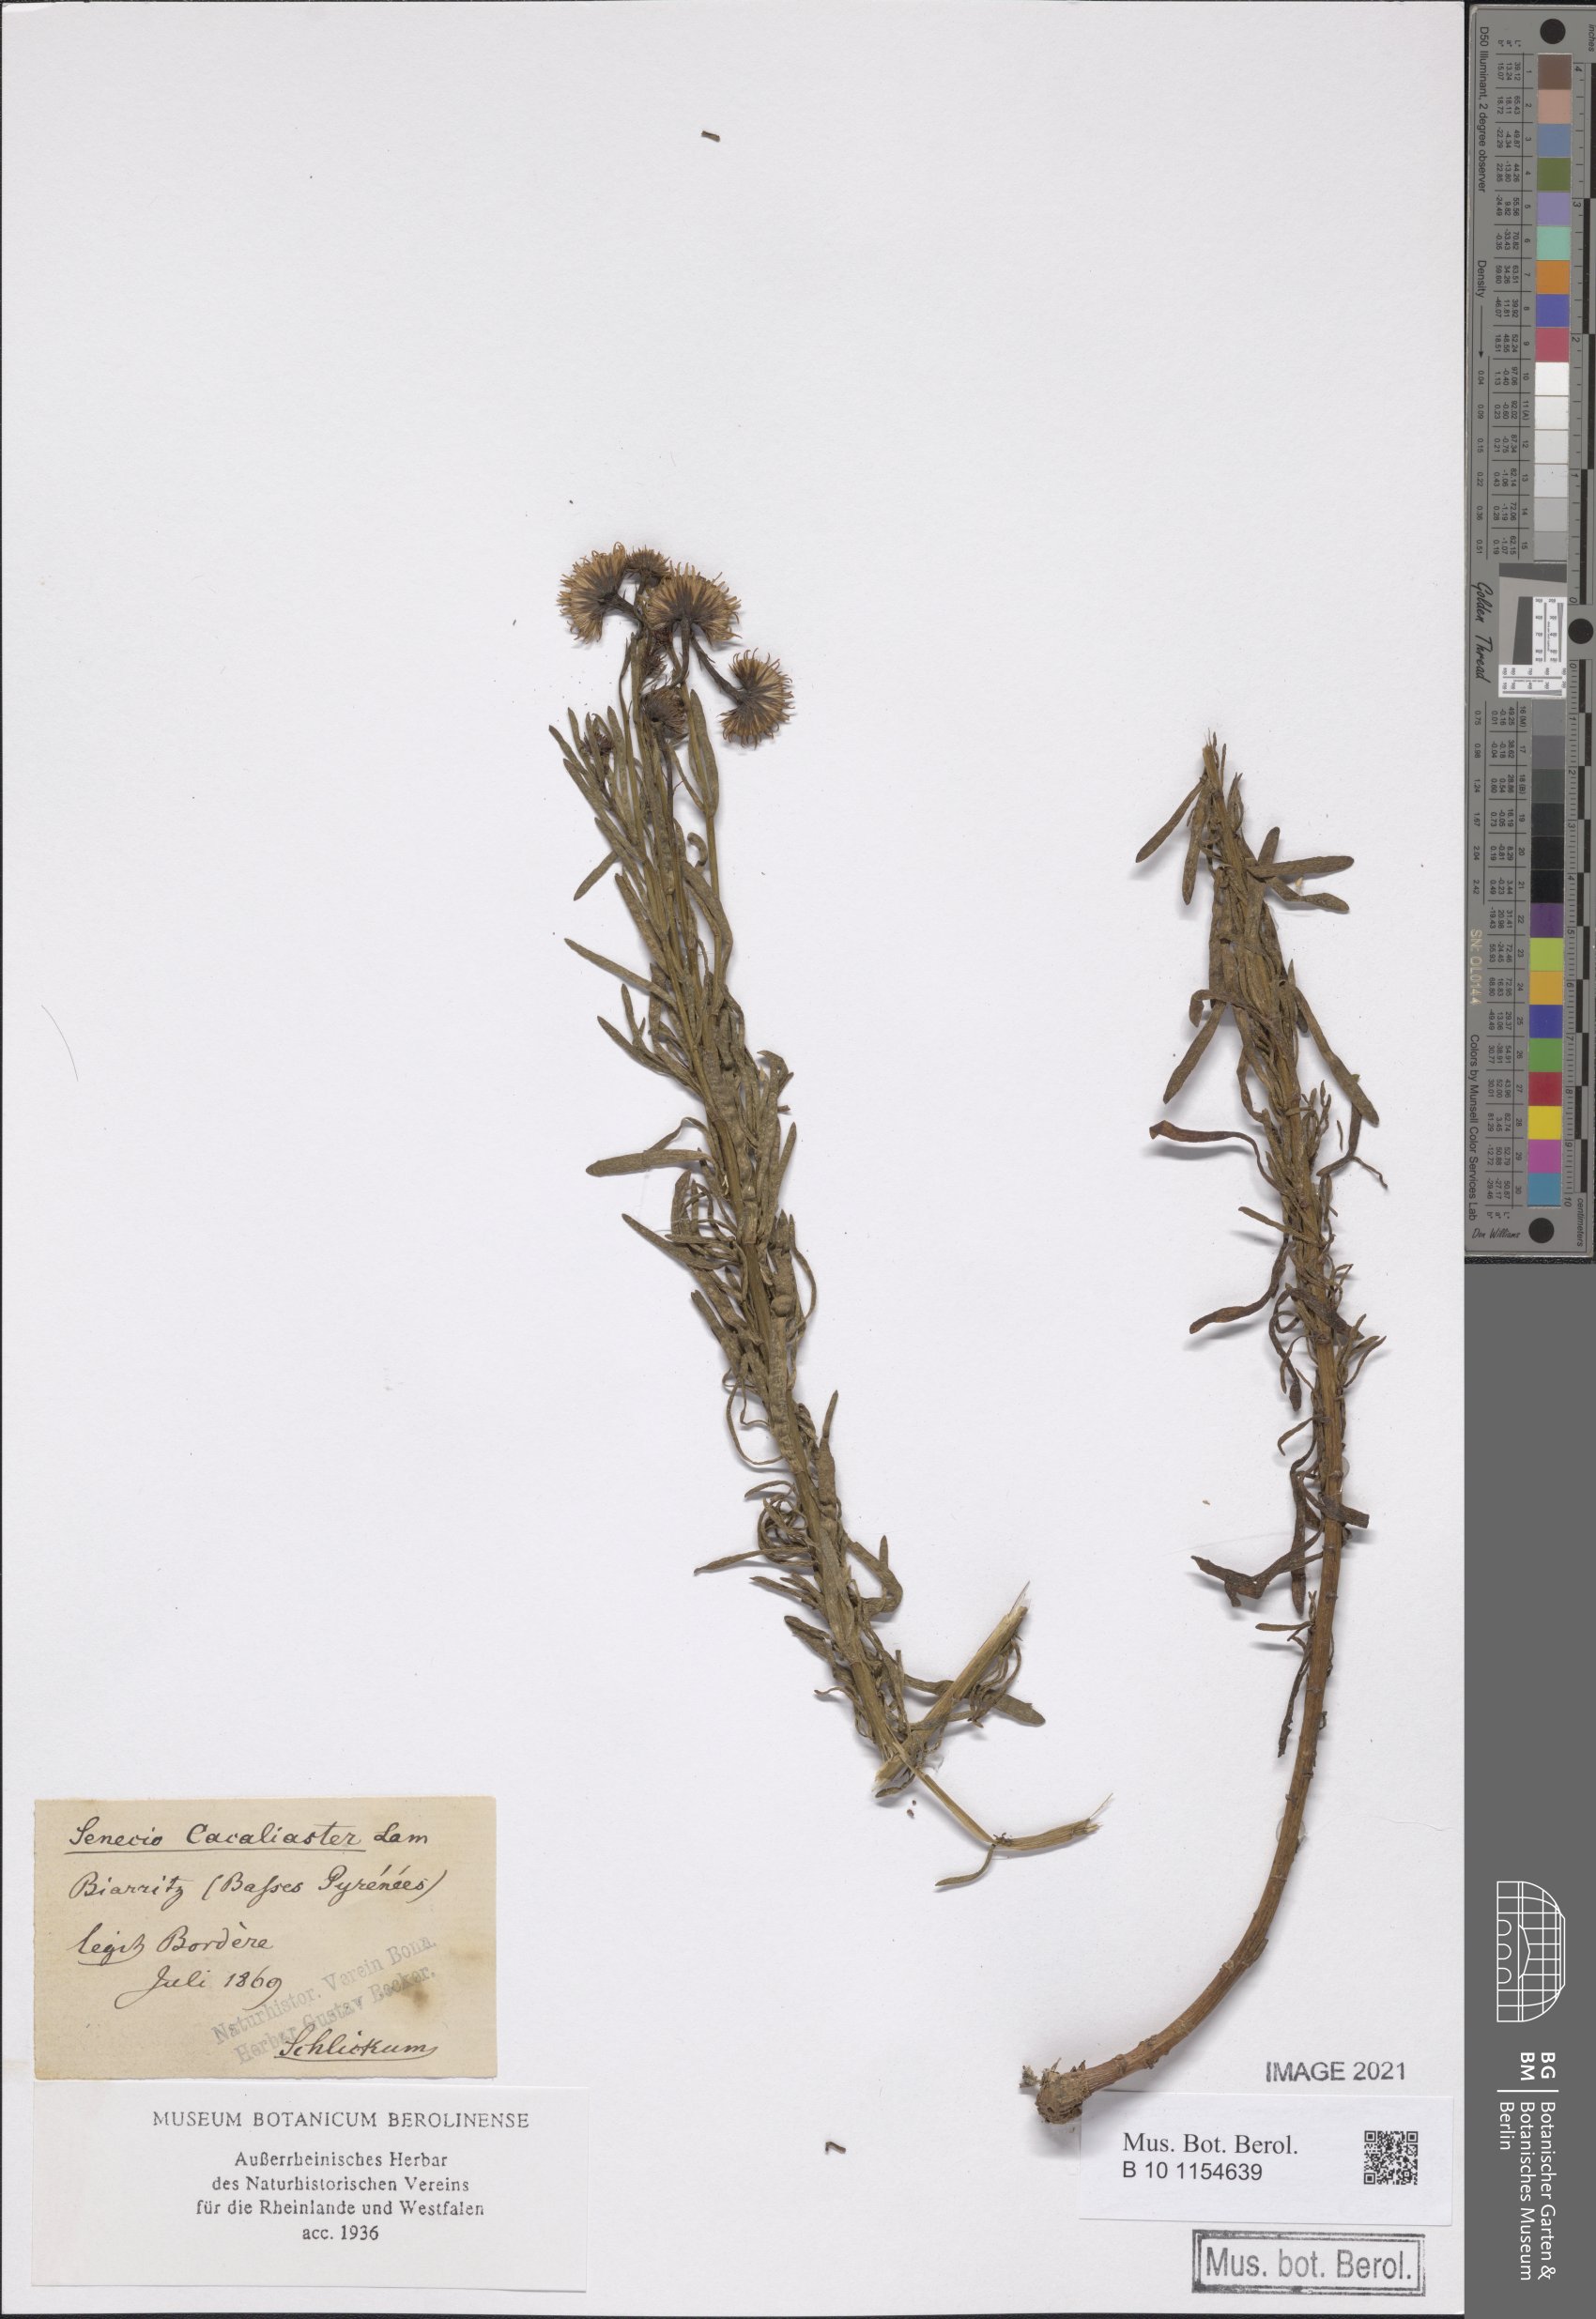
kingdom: Plantae
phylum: Tracheophyta
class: Magnoliopsida
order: Asterales
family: Asteraceae
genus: Senecio
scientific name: Senecio cacaliaster
